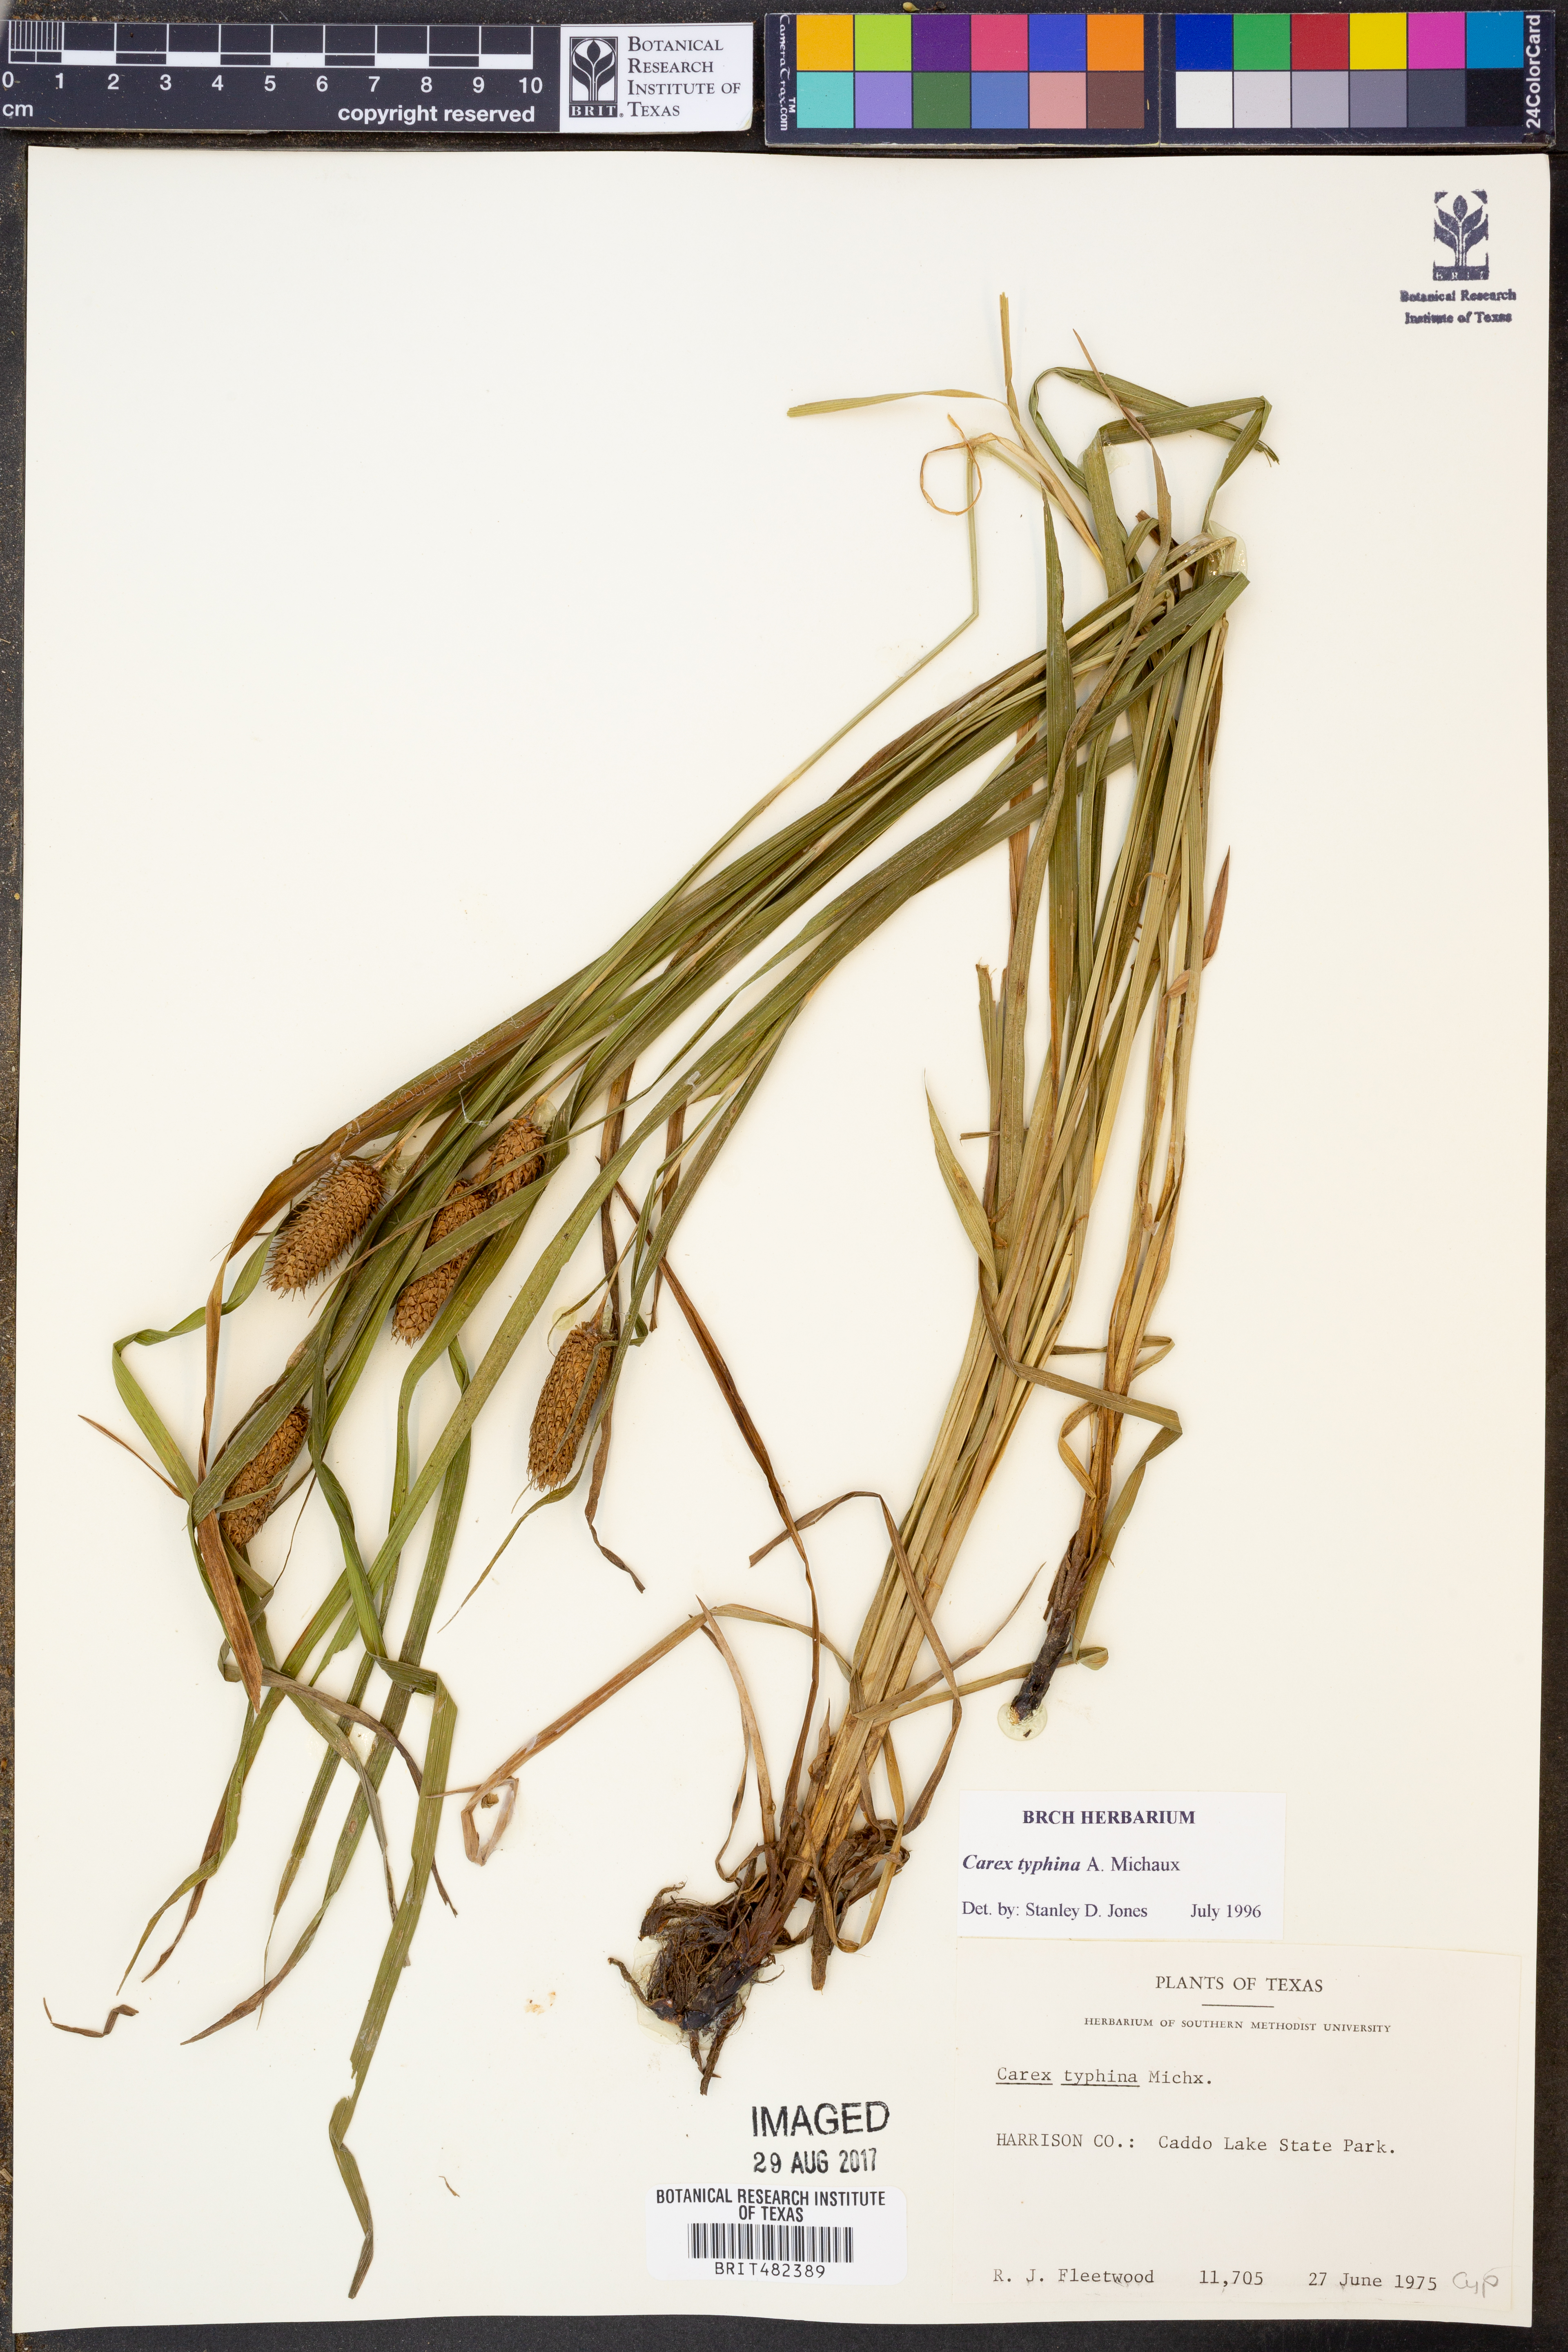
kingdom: Plantae
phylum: Tracheophyta
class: Liliopsida
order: Poales
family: Cyperaceae
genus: Carex
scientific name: Carex typhina
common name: Cattail sedge
